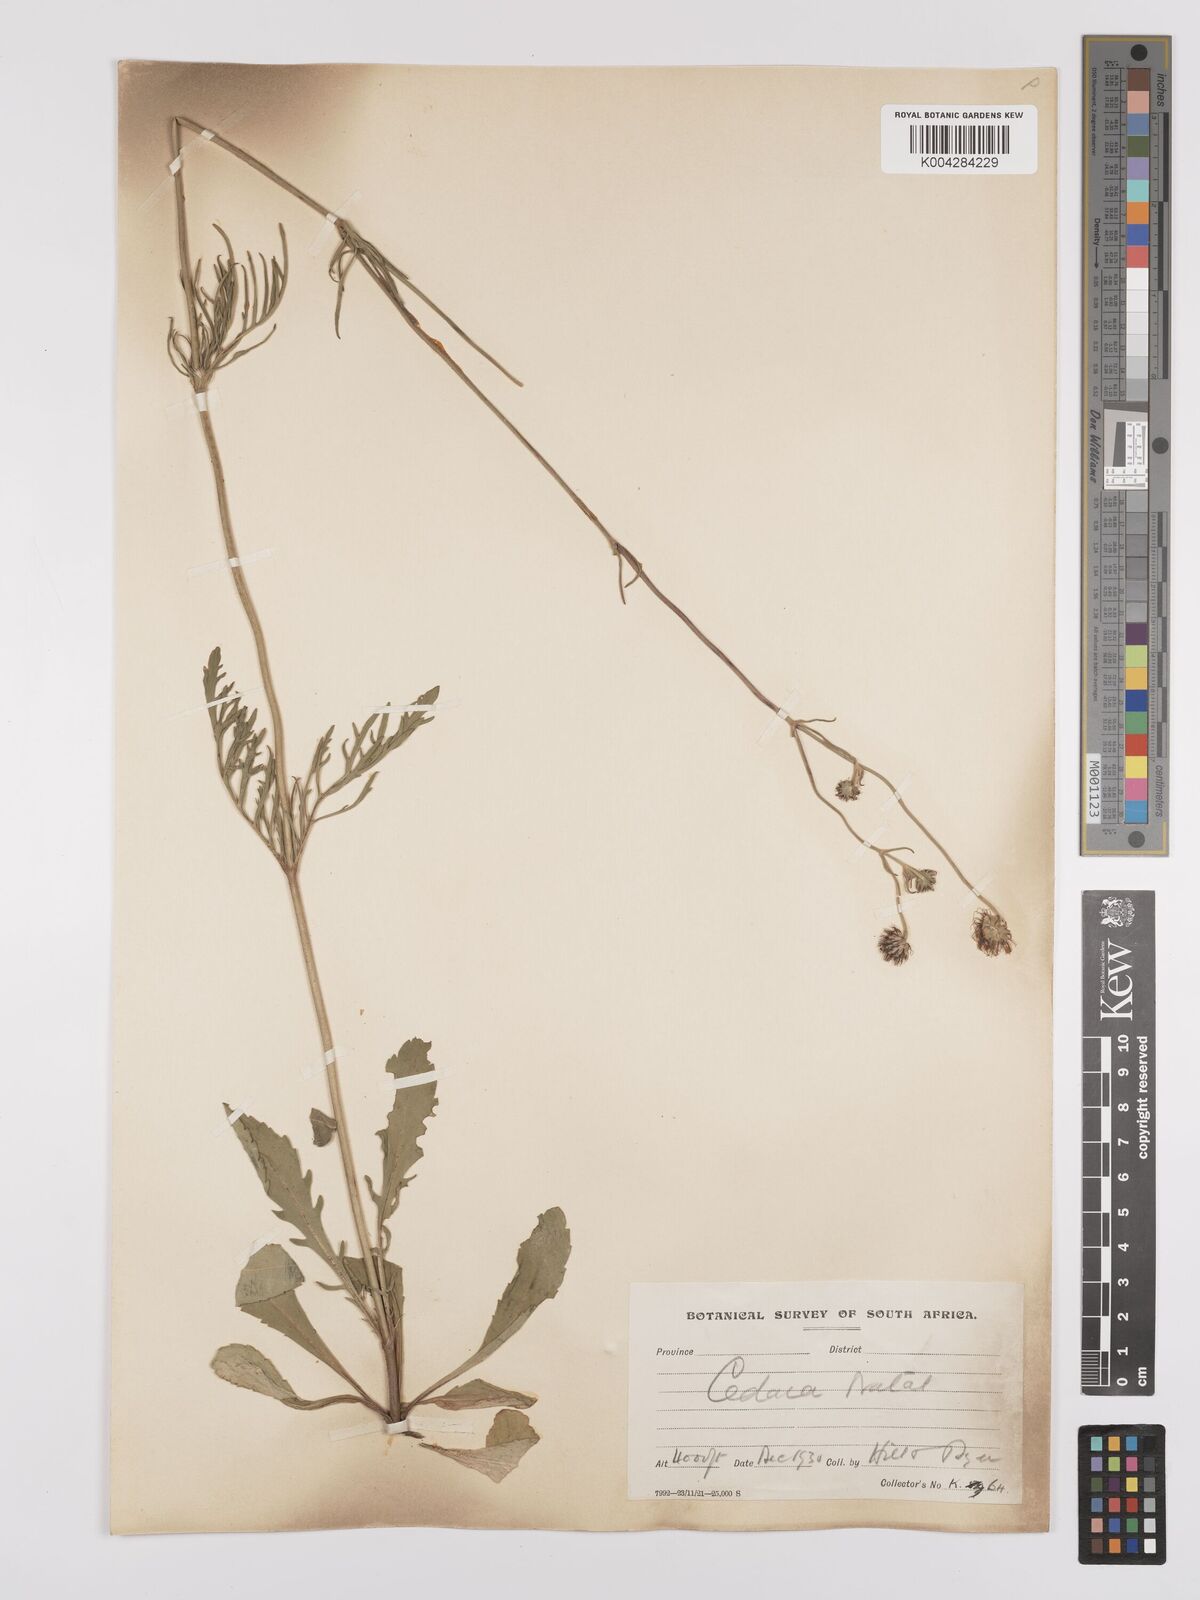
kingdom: Plantae
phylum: Tracheophyta
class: Magnoliopsida
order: Dipsacales
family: Caprifoliaceae
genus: Scabiosa
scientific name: Scabiosa columbaria
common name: Small scabious
